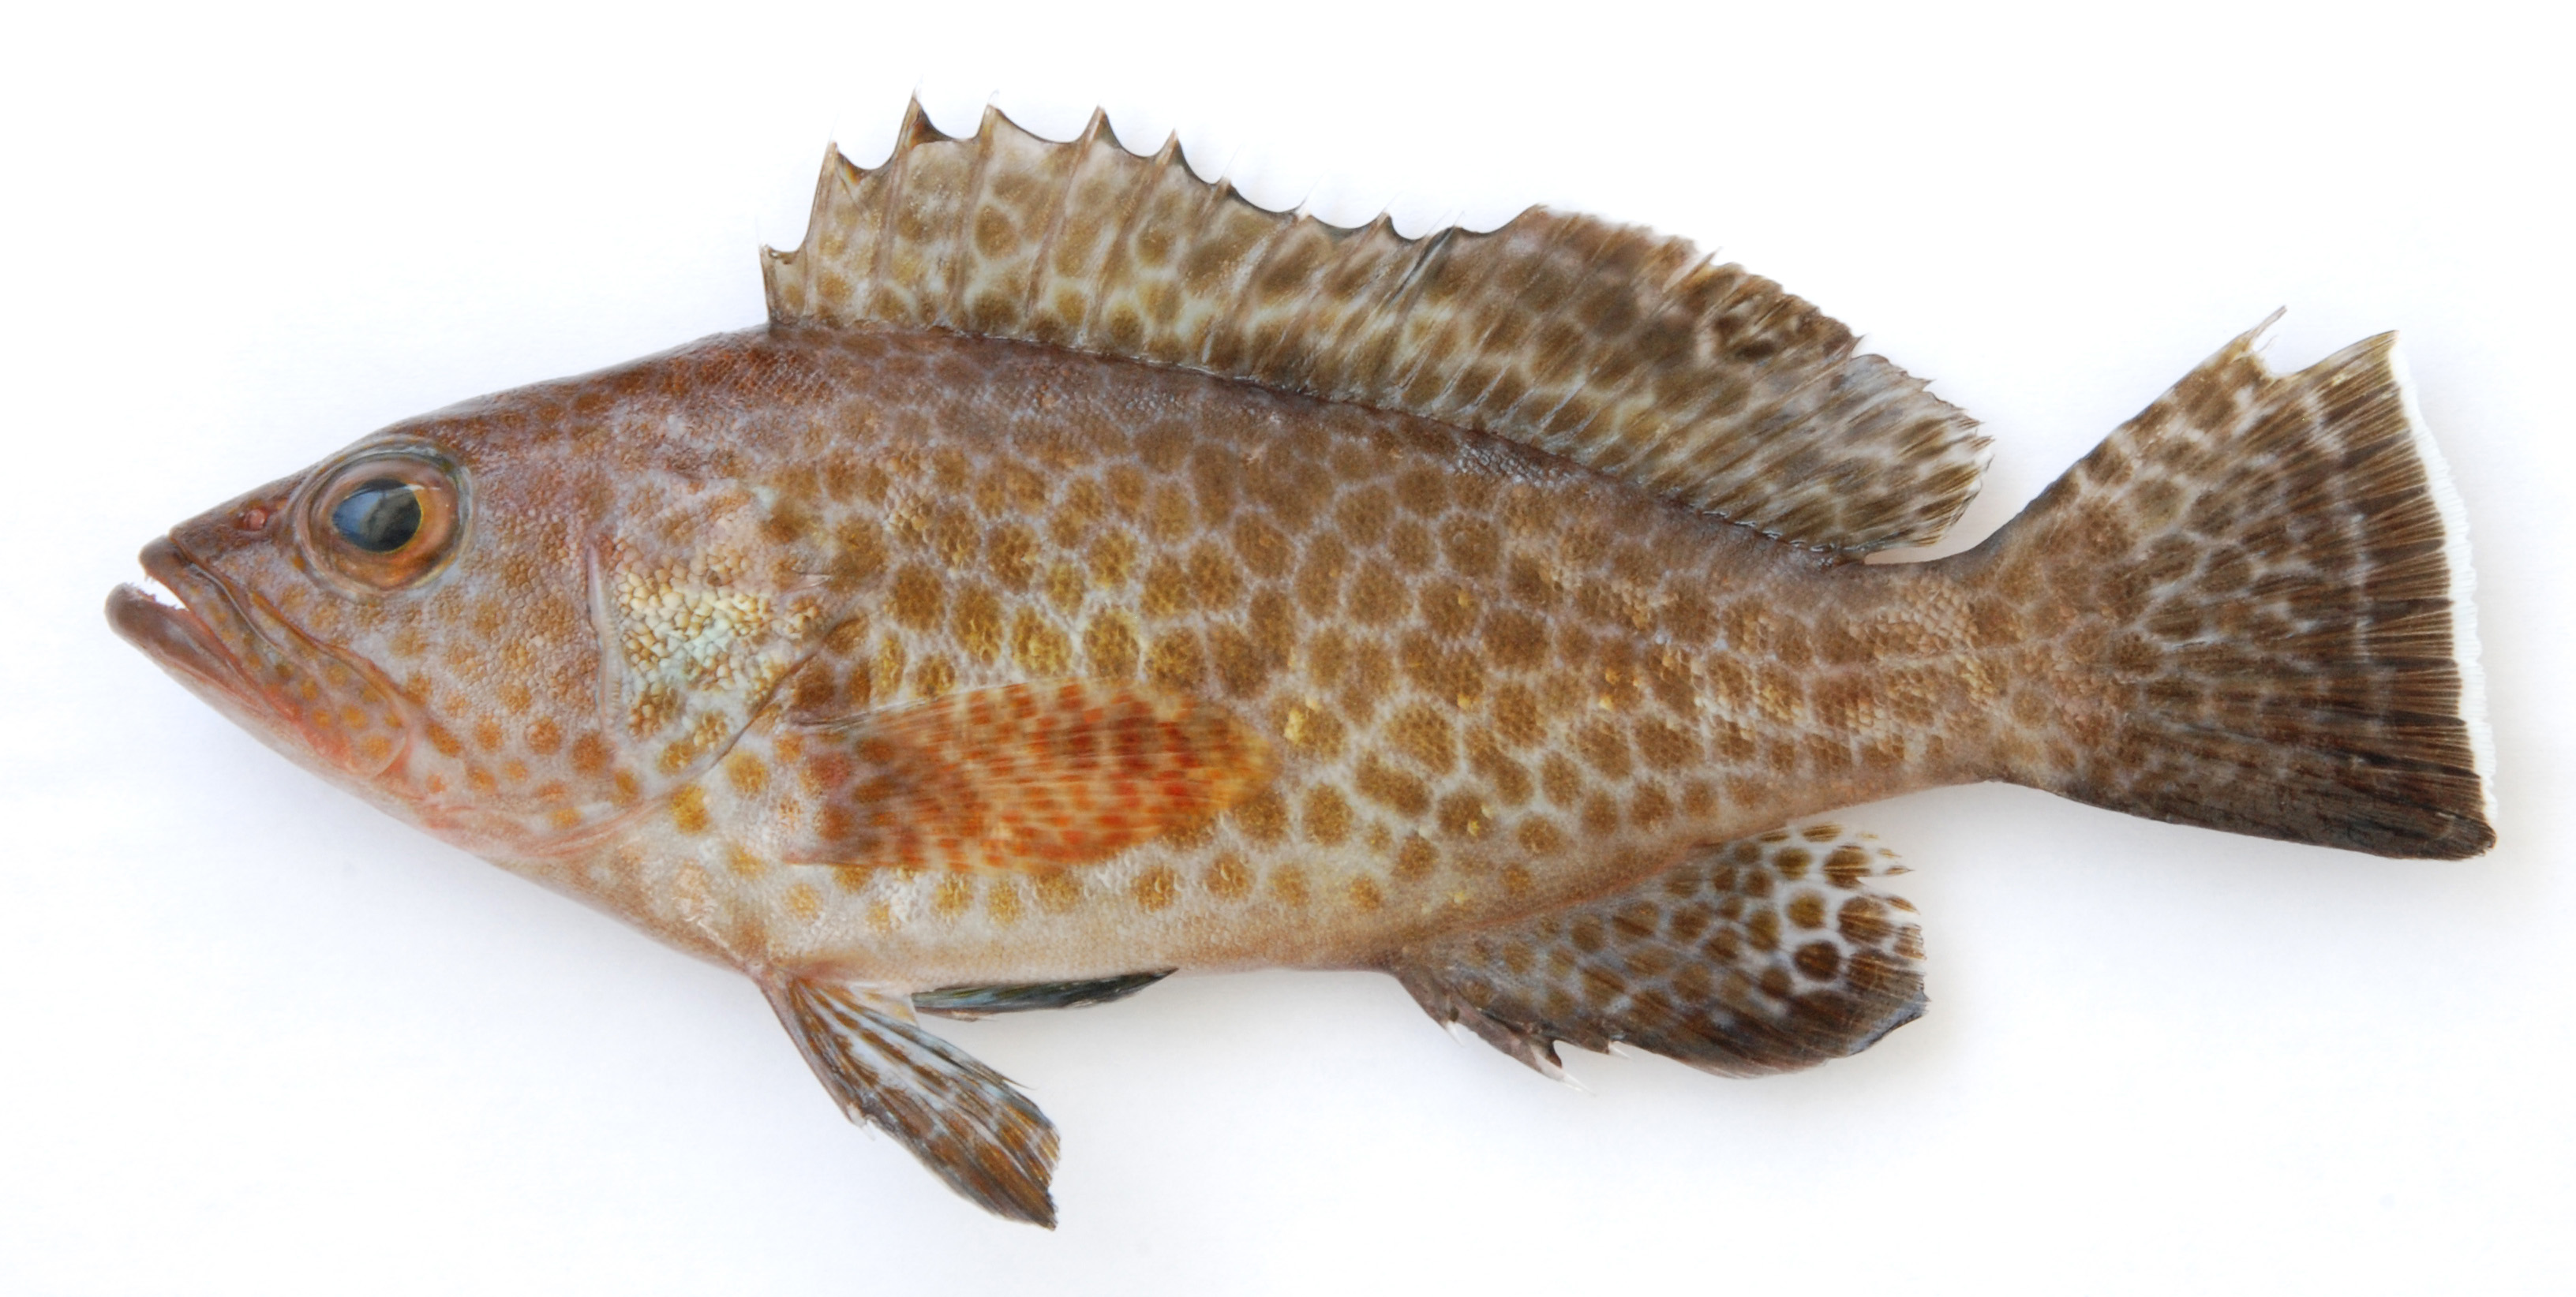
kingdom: Animalia
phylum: Chordata
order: Perciformes
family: Serranidae
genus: Epinephelus
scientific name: Epinephelus areolatus
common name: Areolate grouper
